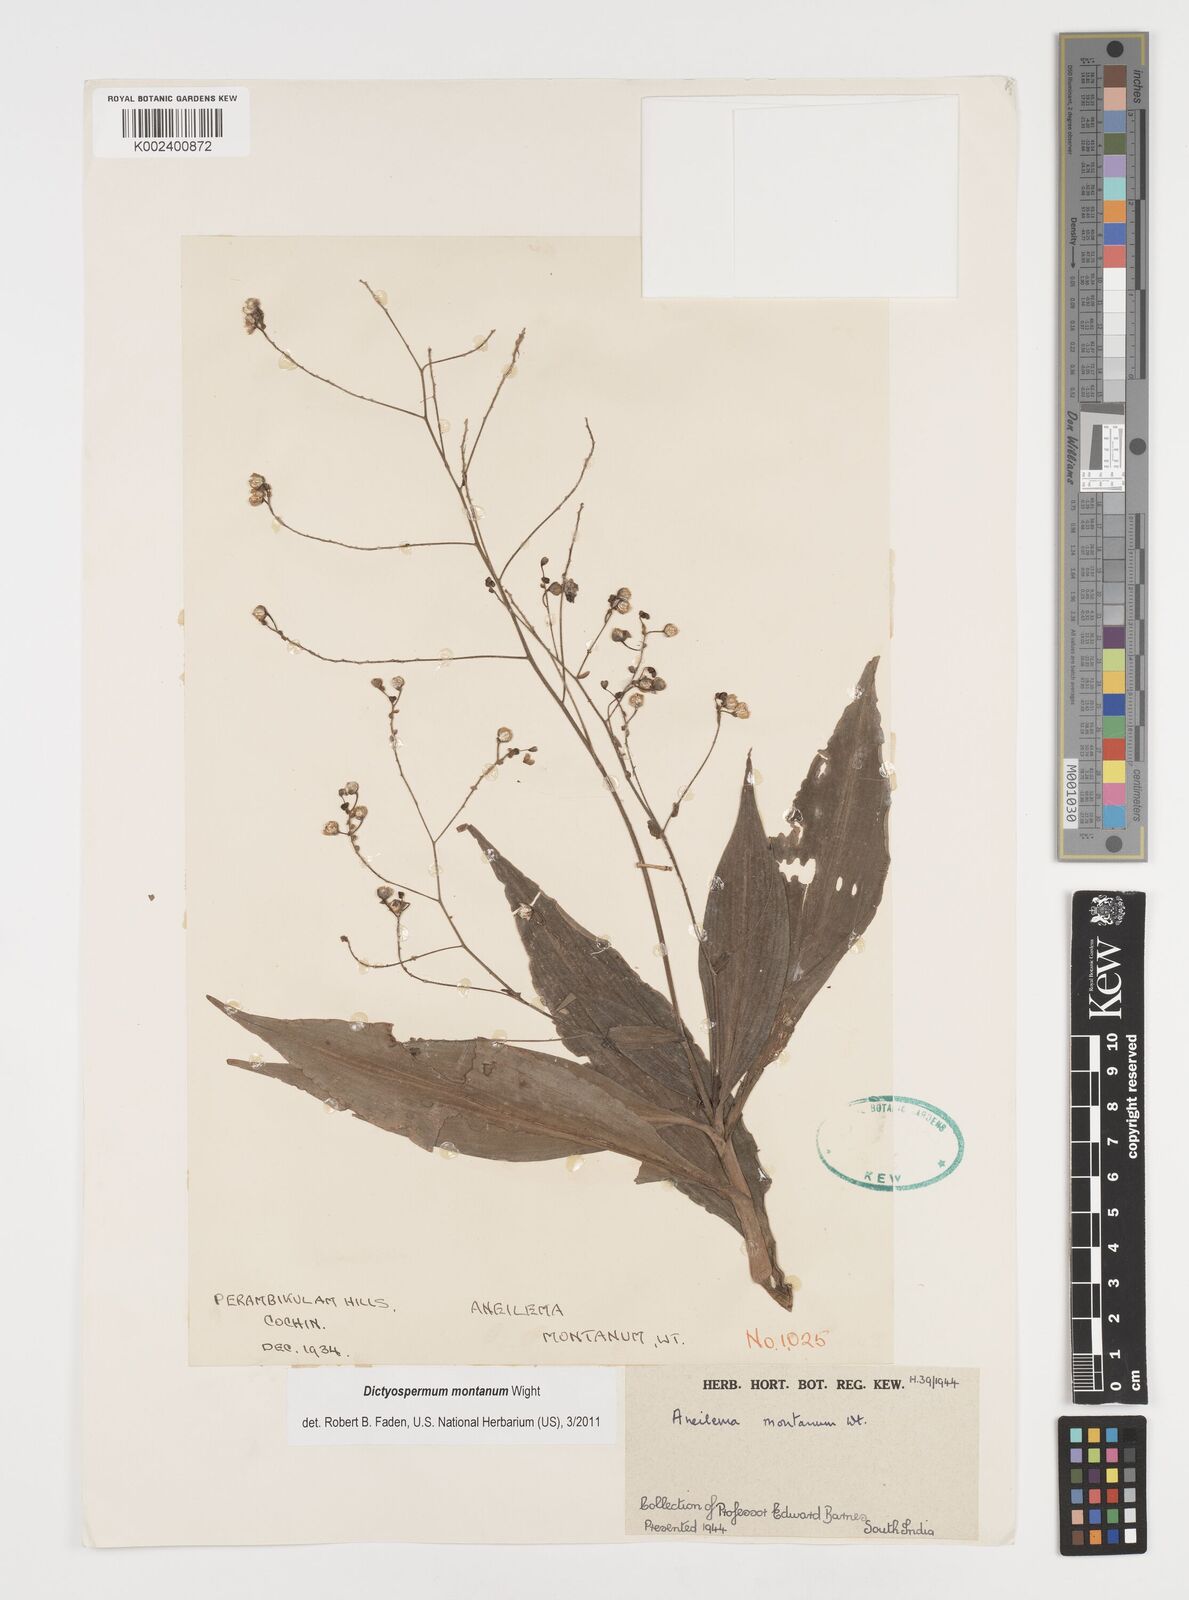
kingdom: Plantae
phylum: Tracheophyta
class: Liliopsida
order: Commelinales
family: Commelinaceae
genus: Dictyospermum
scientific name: Dictyospermum montanum
